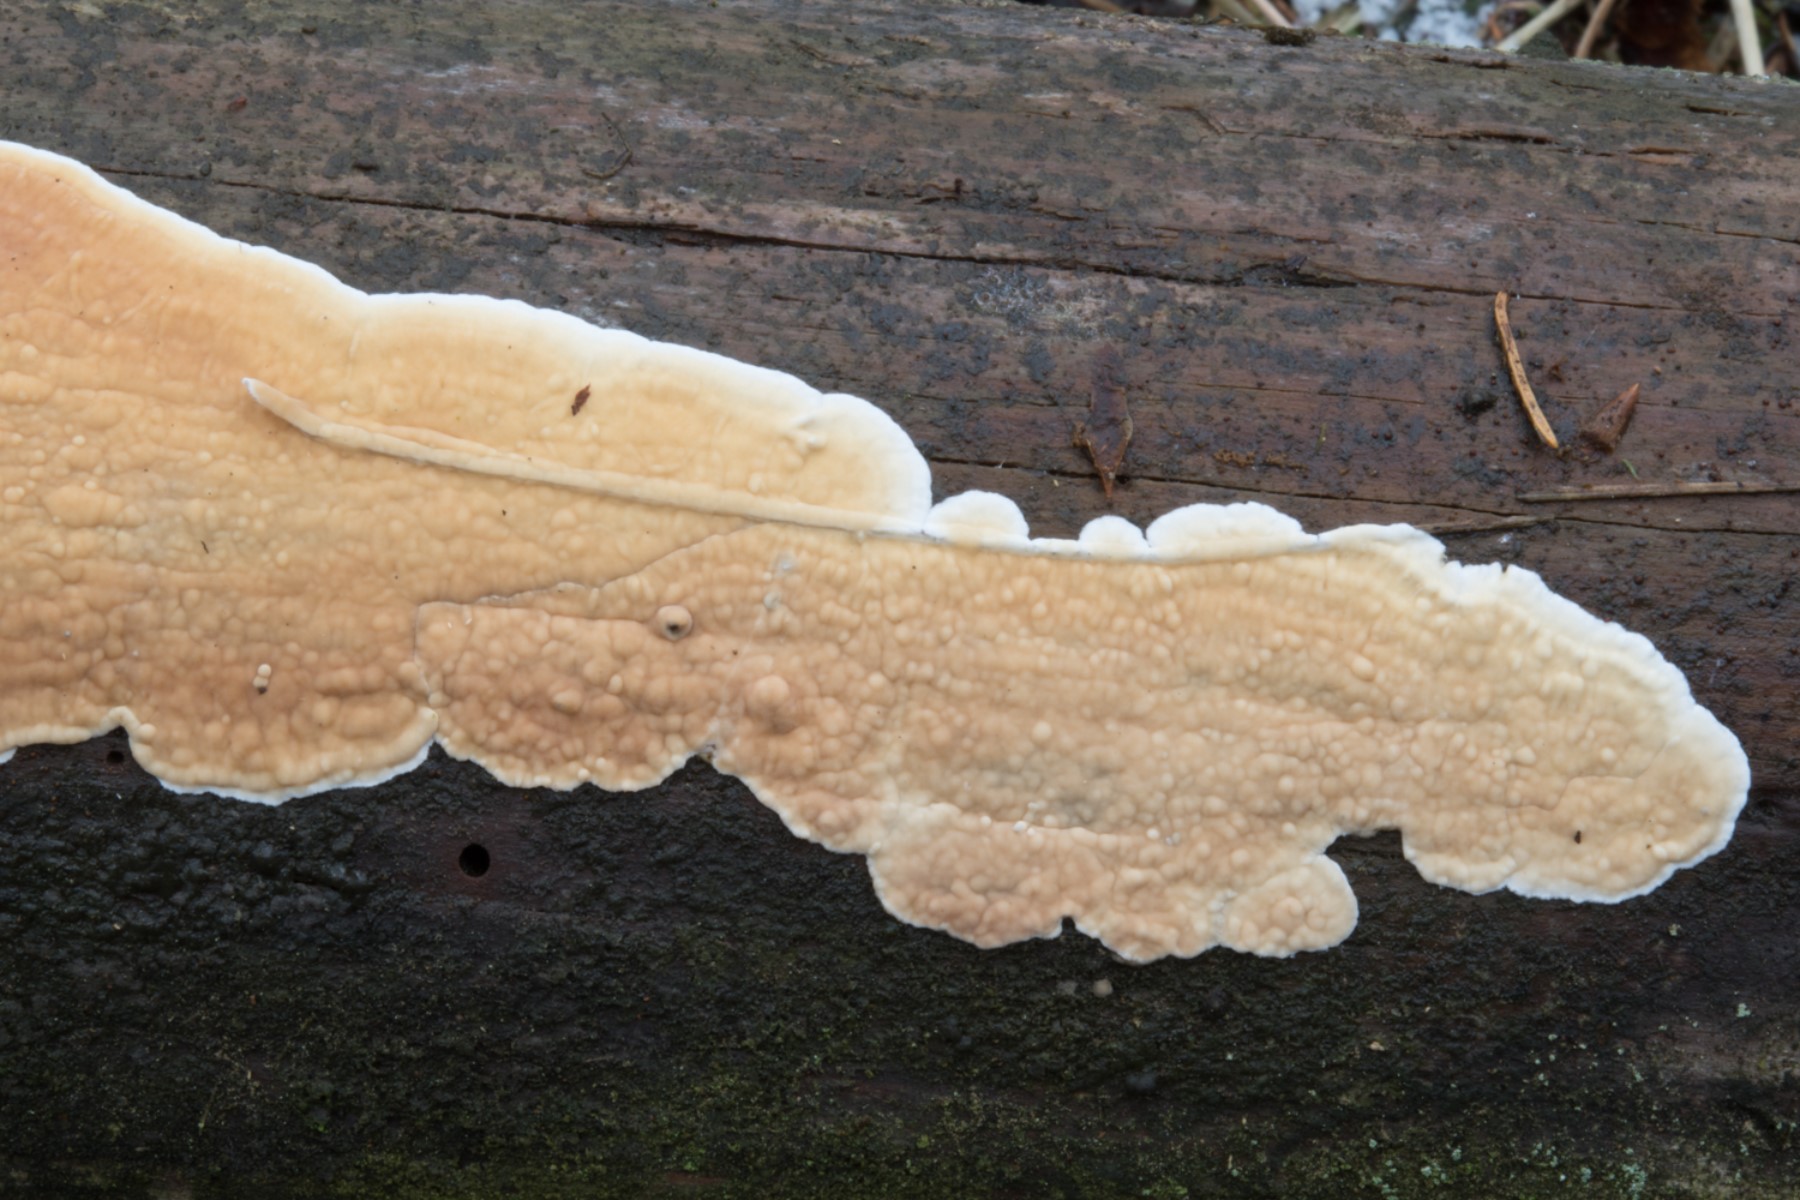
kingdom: Fungi
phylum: Basidiomycota
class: Agaricomycetes
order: Polyporales
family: Dacryobolaceae
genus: Dacryobolus
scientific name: Dacryobolus karstenii
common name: glat vulkanskorpe
